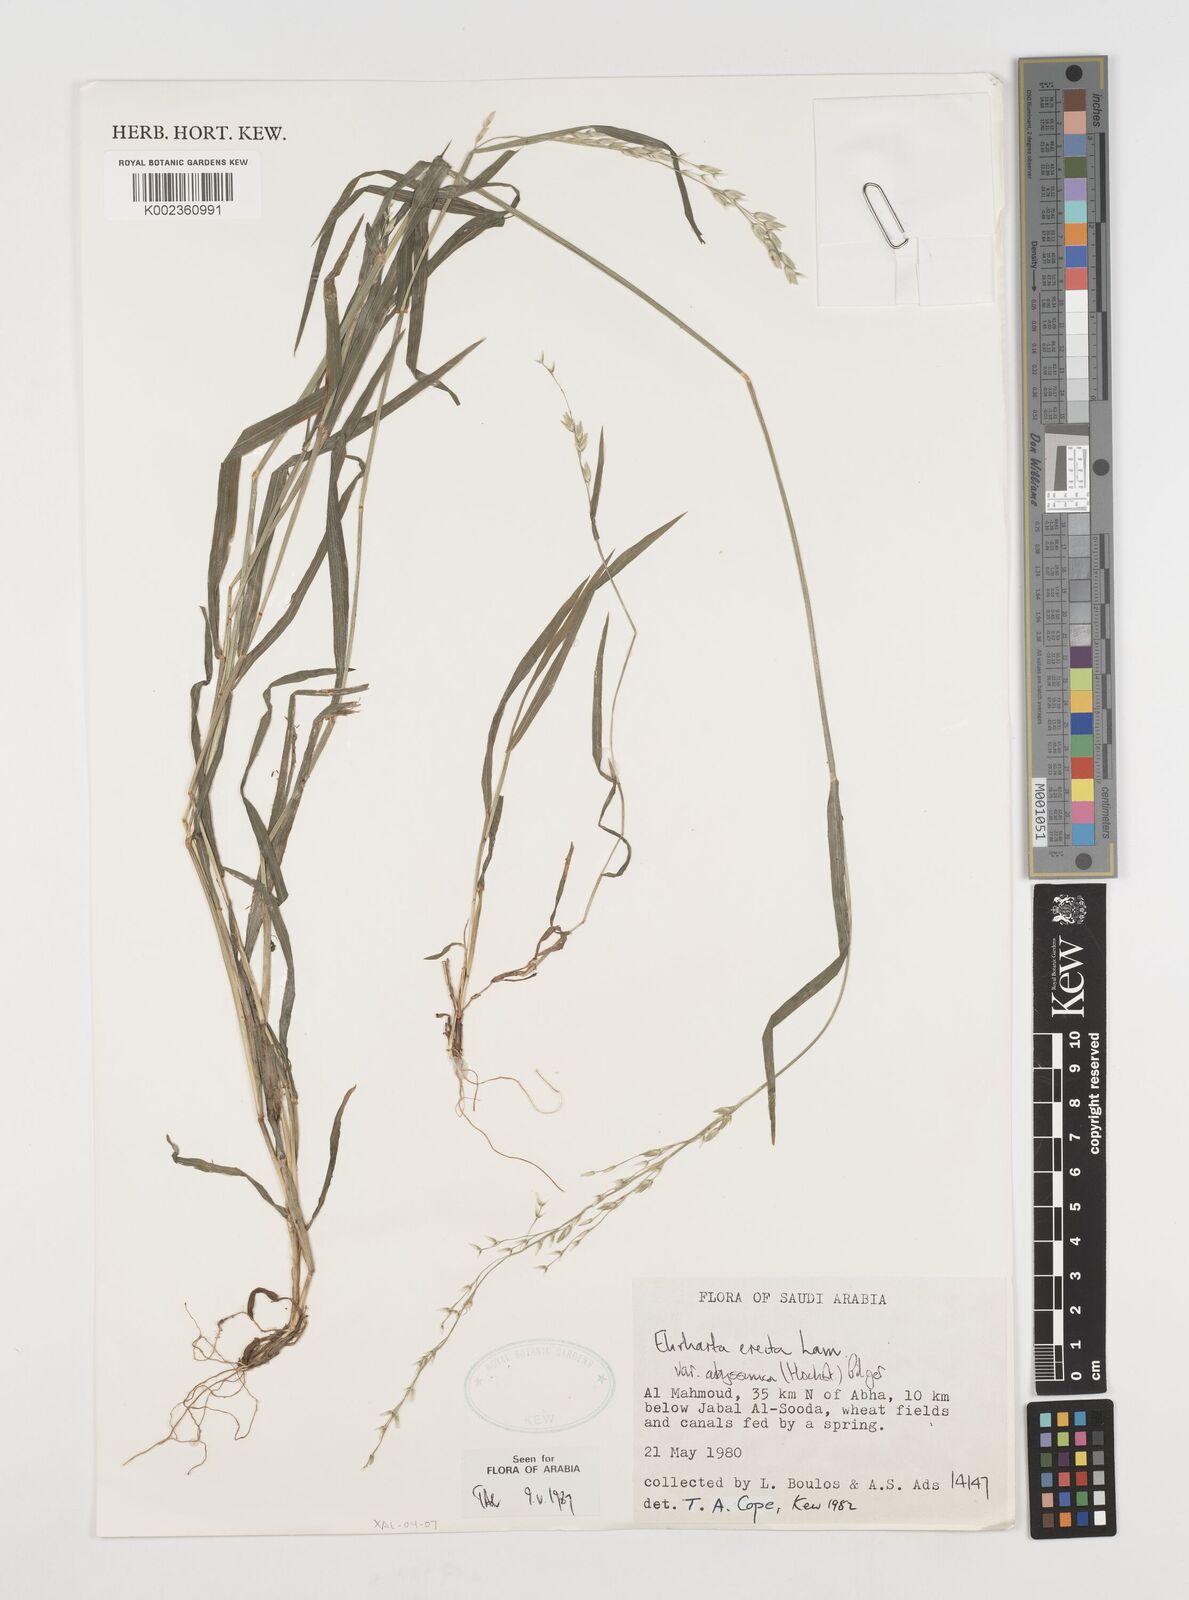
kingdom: Plantae
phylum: Tracheophyta
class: Liliopsida
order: Poales
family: Poaceae
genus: Ehrharta
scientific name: Ehrharta erecta
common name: Panic veldtgrass
